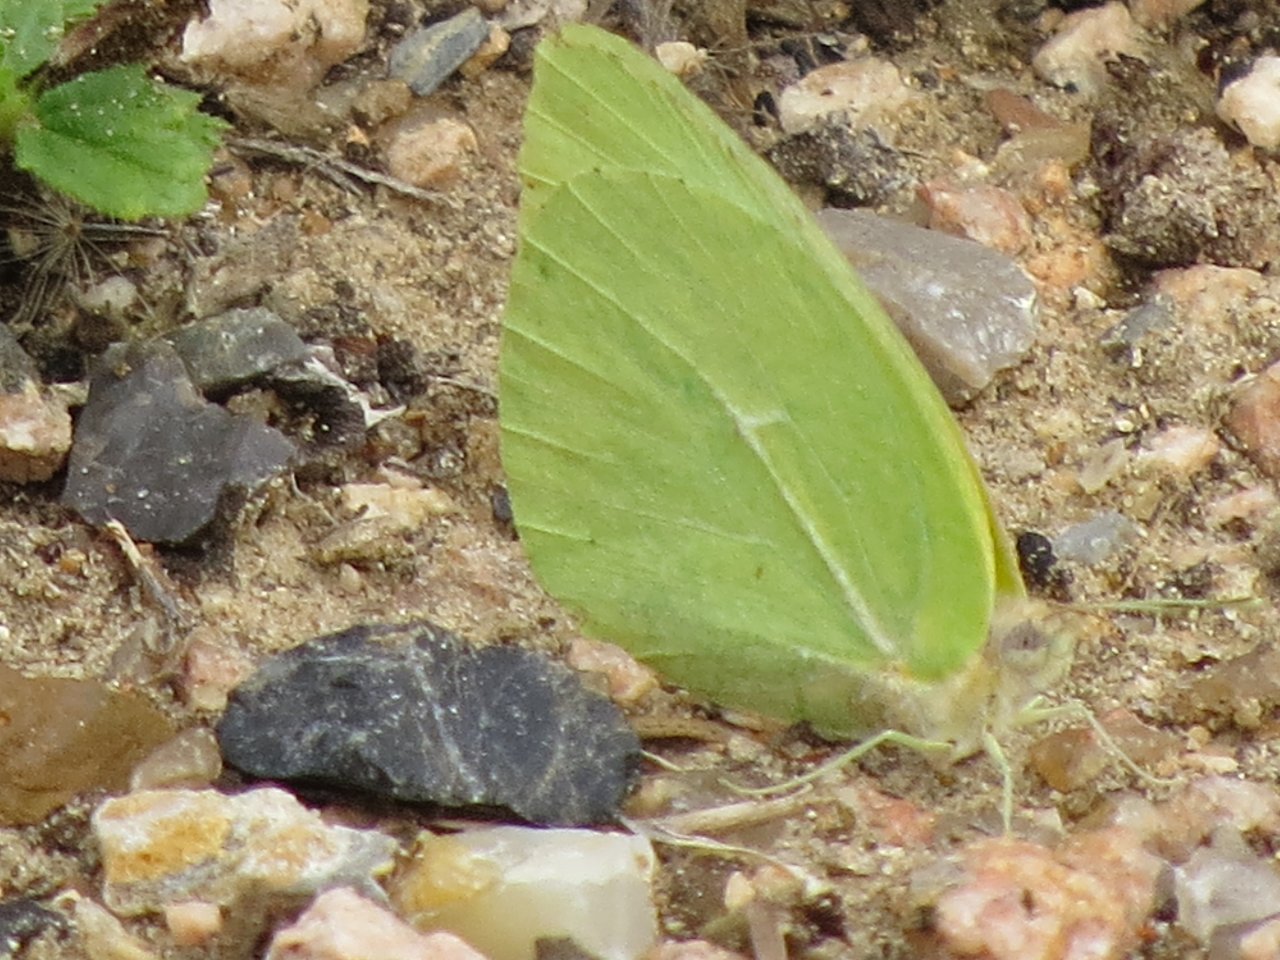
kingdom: Animalia
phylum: Arthropoda
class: Insecta
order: Lepidoptera
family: Pieridae
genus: Kricogonia
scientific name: Kricogonia lyside
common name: Lyside Sulphur
